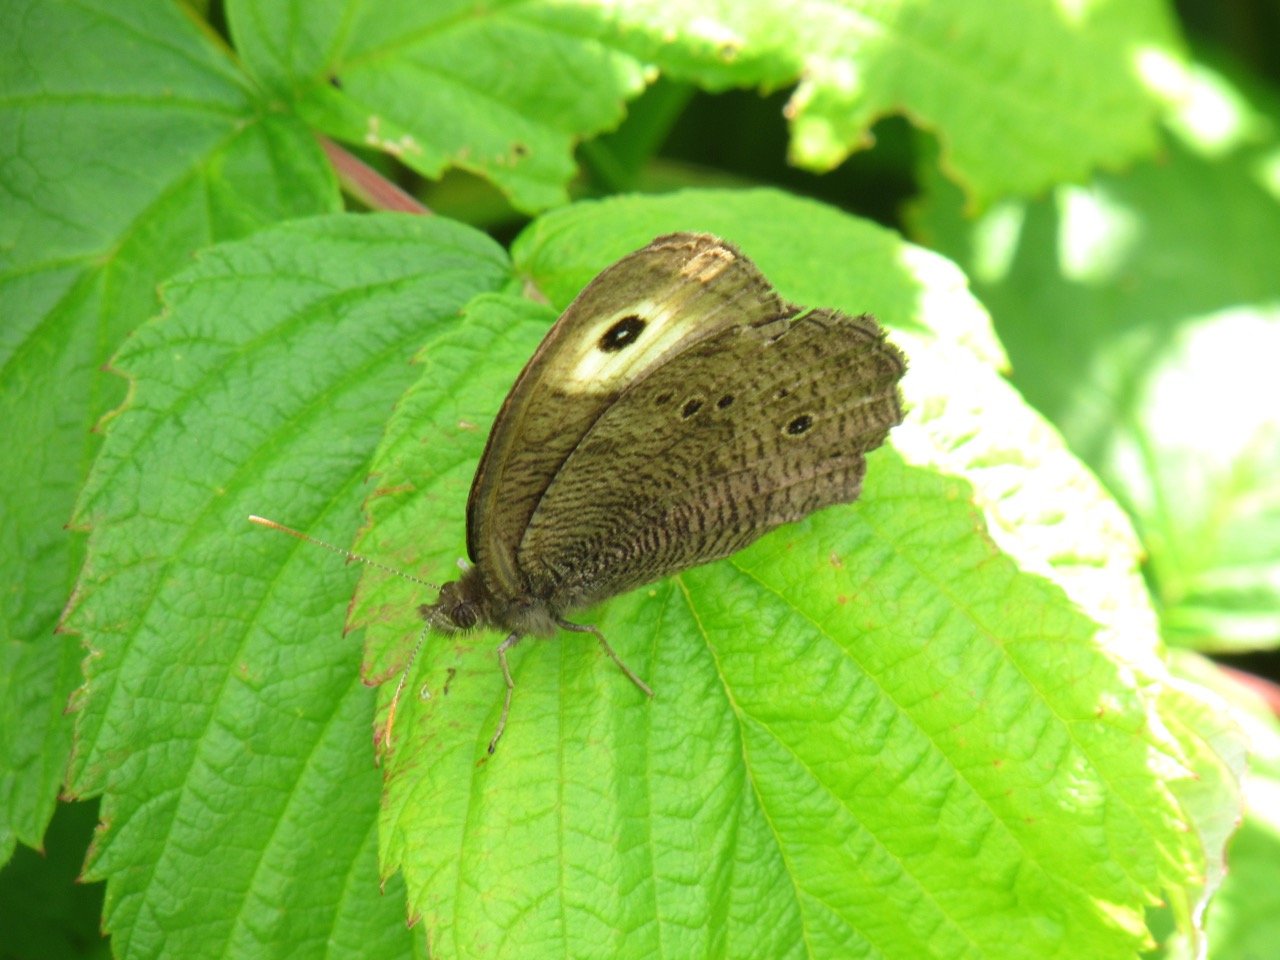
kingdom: Animalia
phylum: Arthropoda
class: Insecta
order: Lepidoptera
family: Nymphalidae
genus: Cercyonis
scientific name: Cercyonis pegala
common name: Common Wood-Nymph
